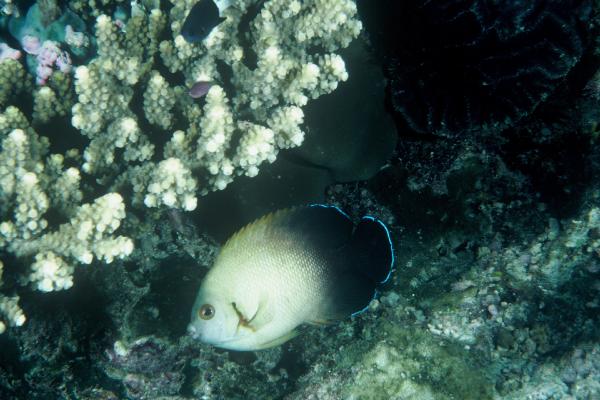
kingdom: Animalia
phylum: Chordata
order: Perciformes
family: Pomacanthidae
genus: Centropyge
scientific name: Centropyge vrolikii
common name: Pearlscale angelfish
